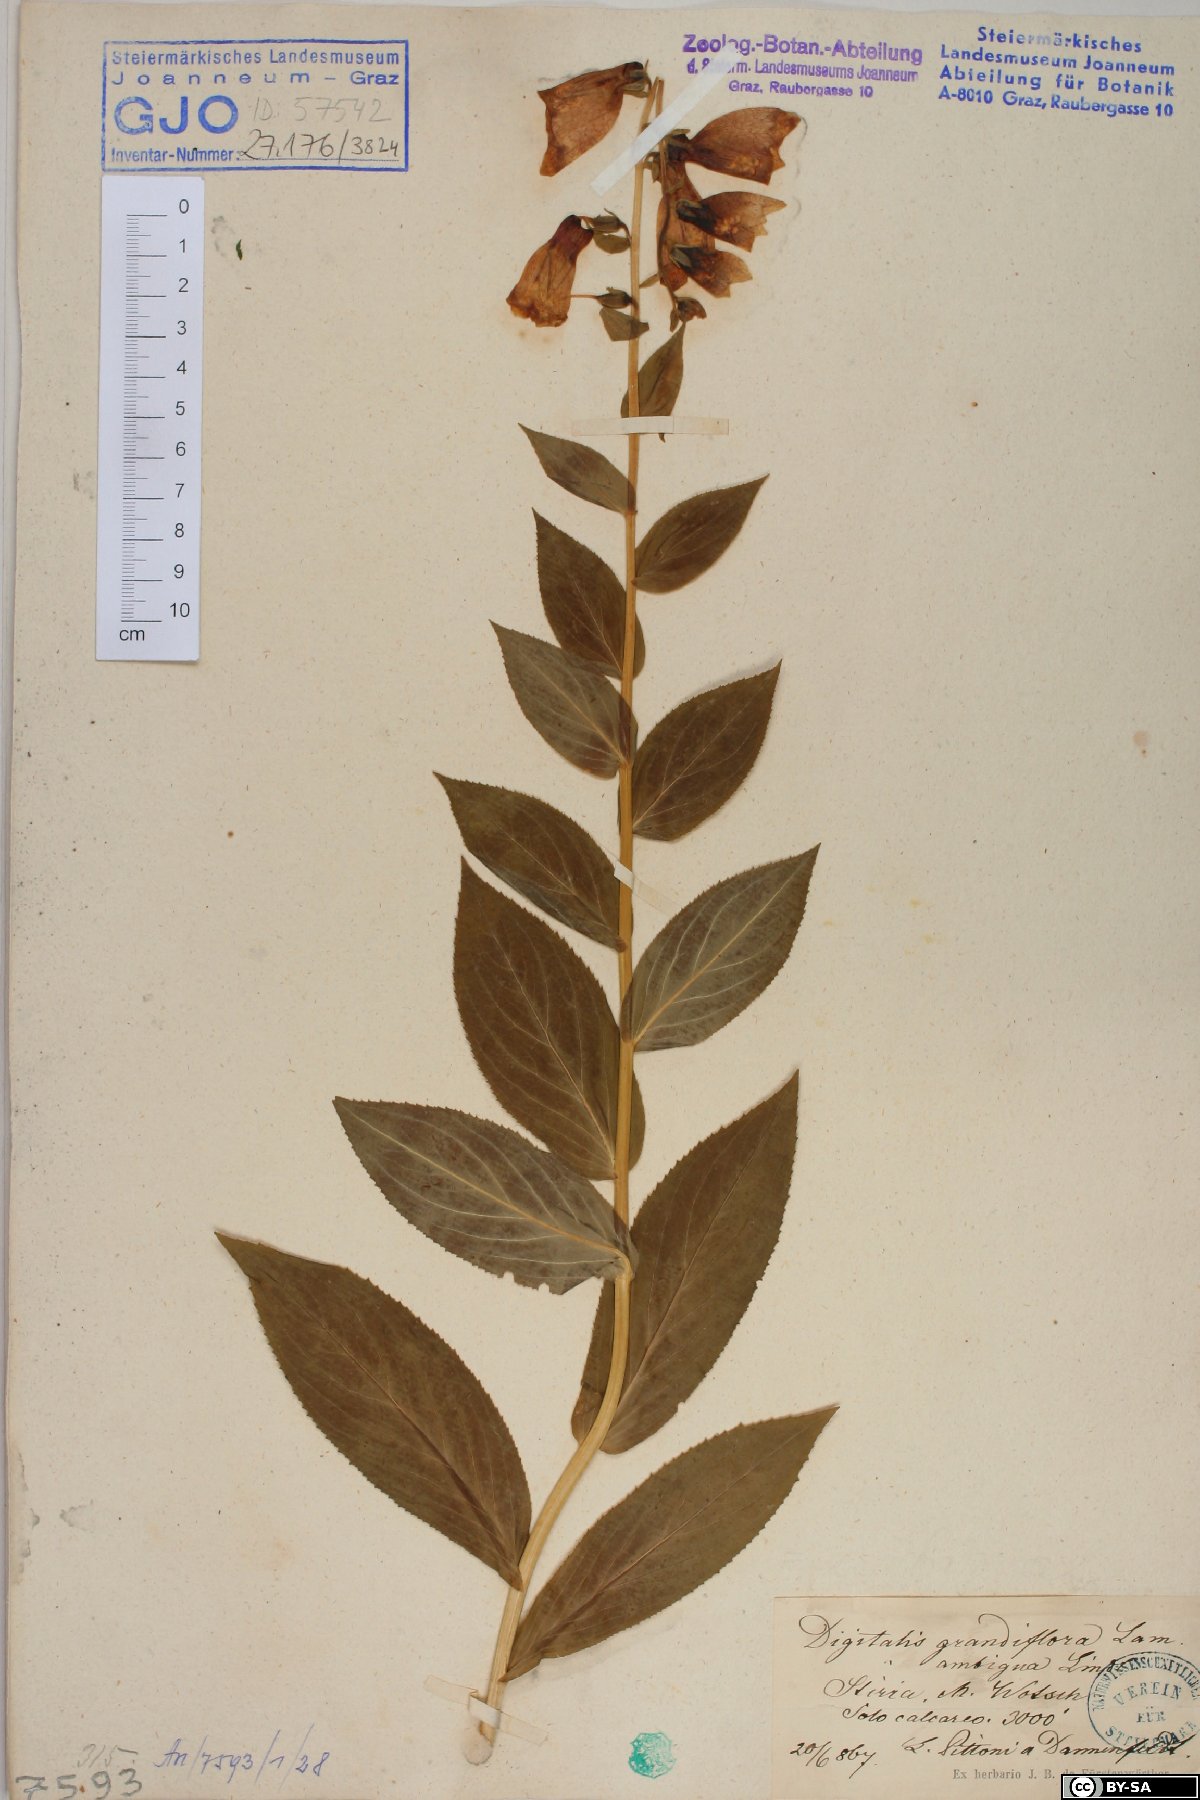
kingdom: Plantae
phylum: Tracheophyta
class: Magnoliopsida
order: Lamiales
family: Plantaginaceae
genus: Digitalis
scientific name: Digitalis grandiflora
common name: Yellow foxglove
